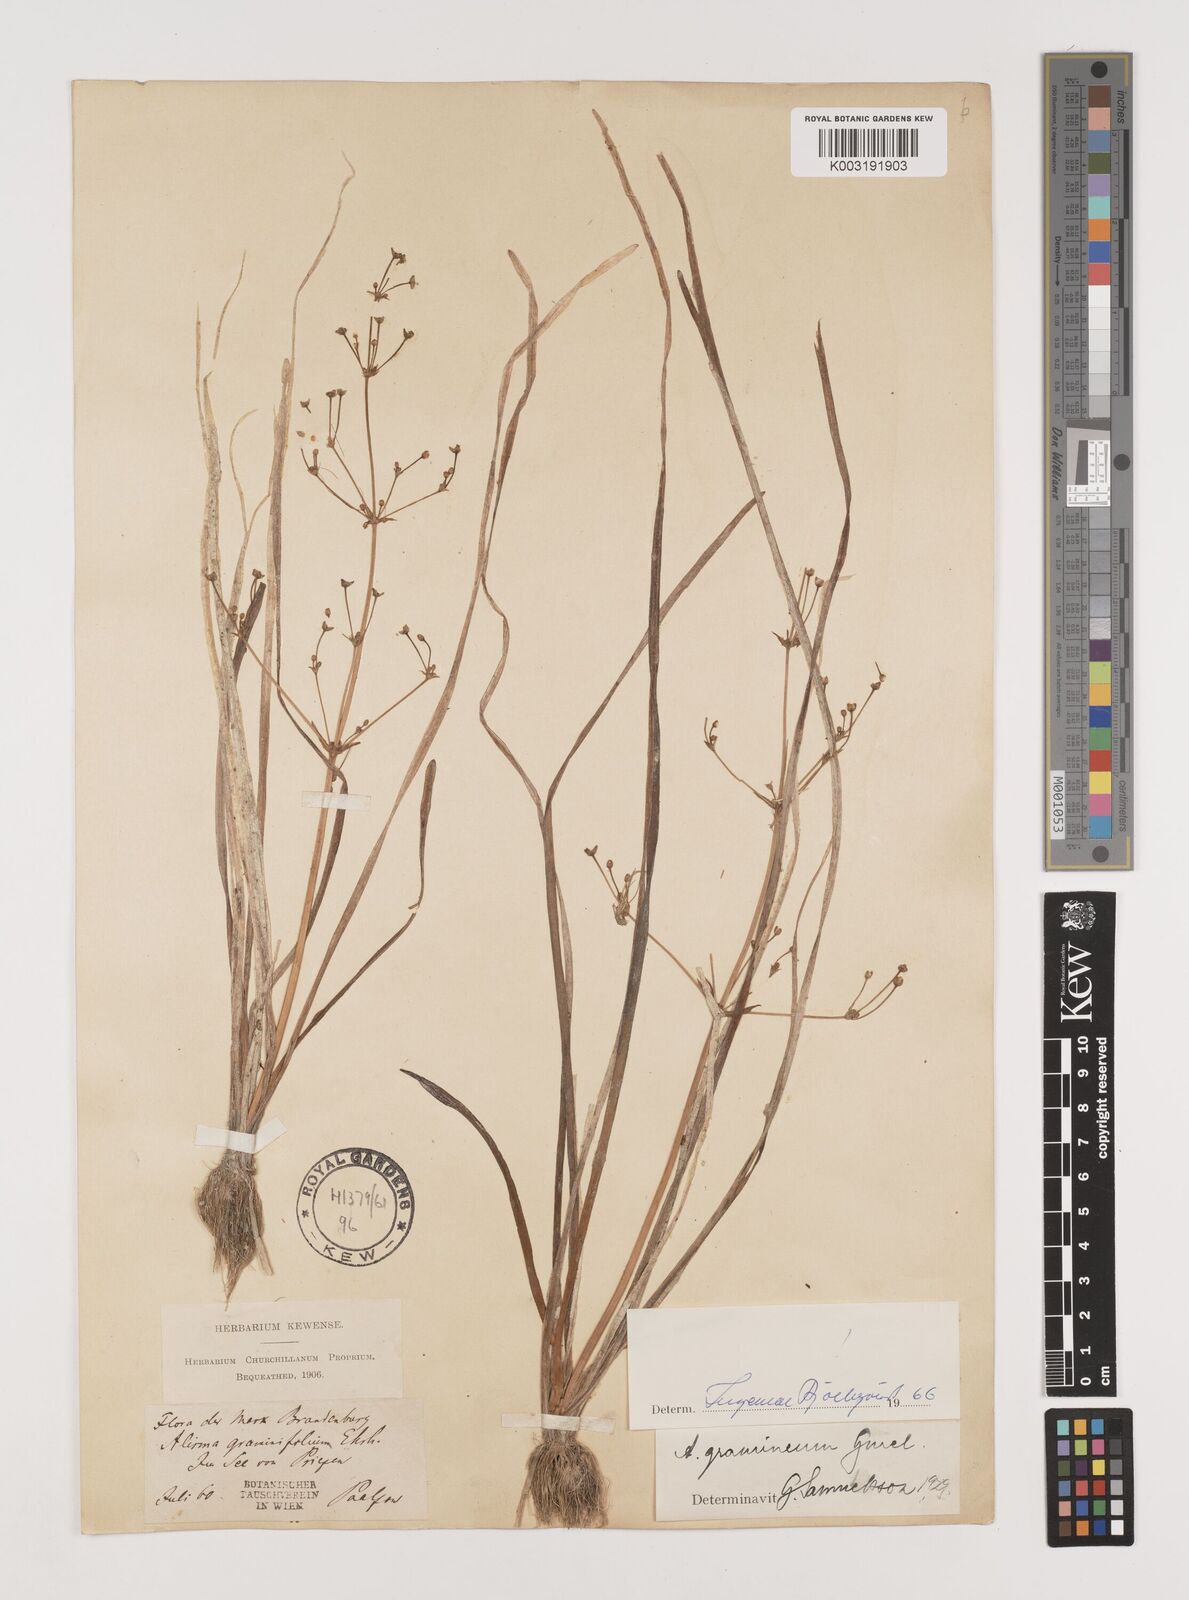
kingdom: Plantae
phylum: Tracheophyta
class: Liliopsida
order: Alismatales
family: Alismataceae
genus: Alisma
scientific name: Alisma gramineum
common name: Ribbon-leaved water-plantain
